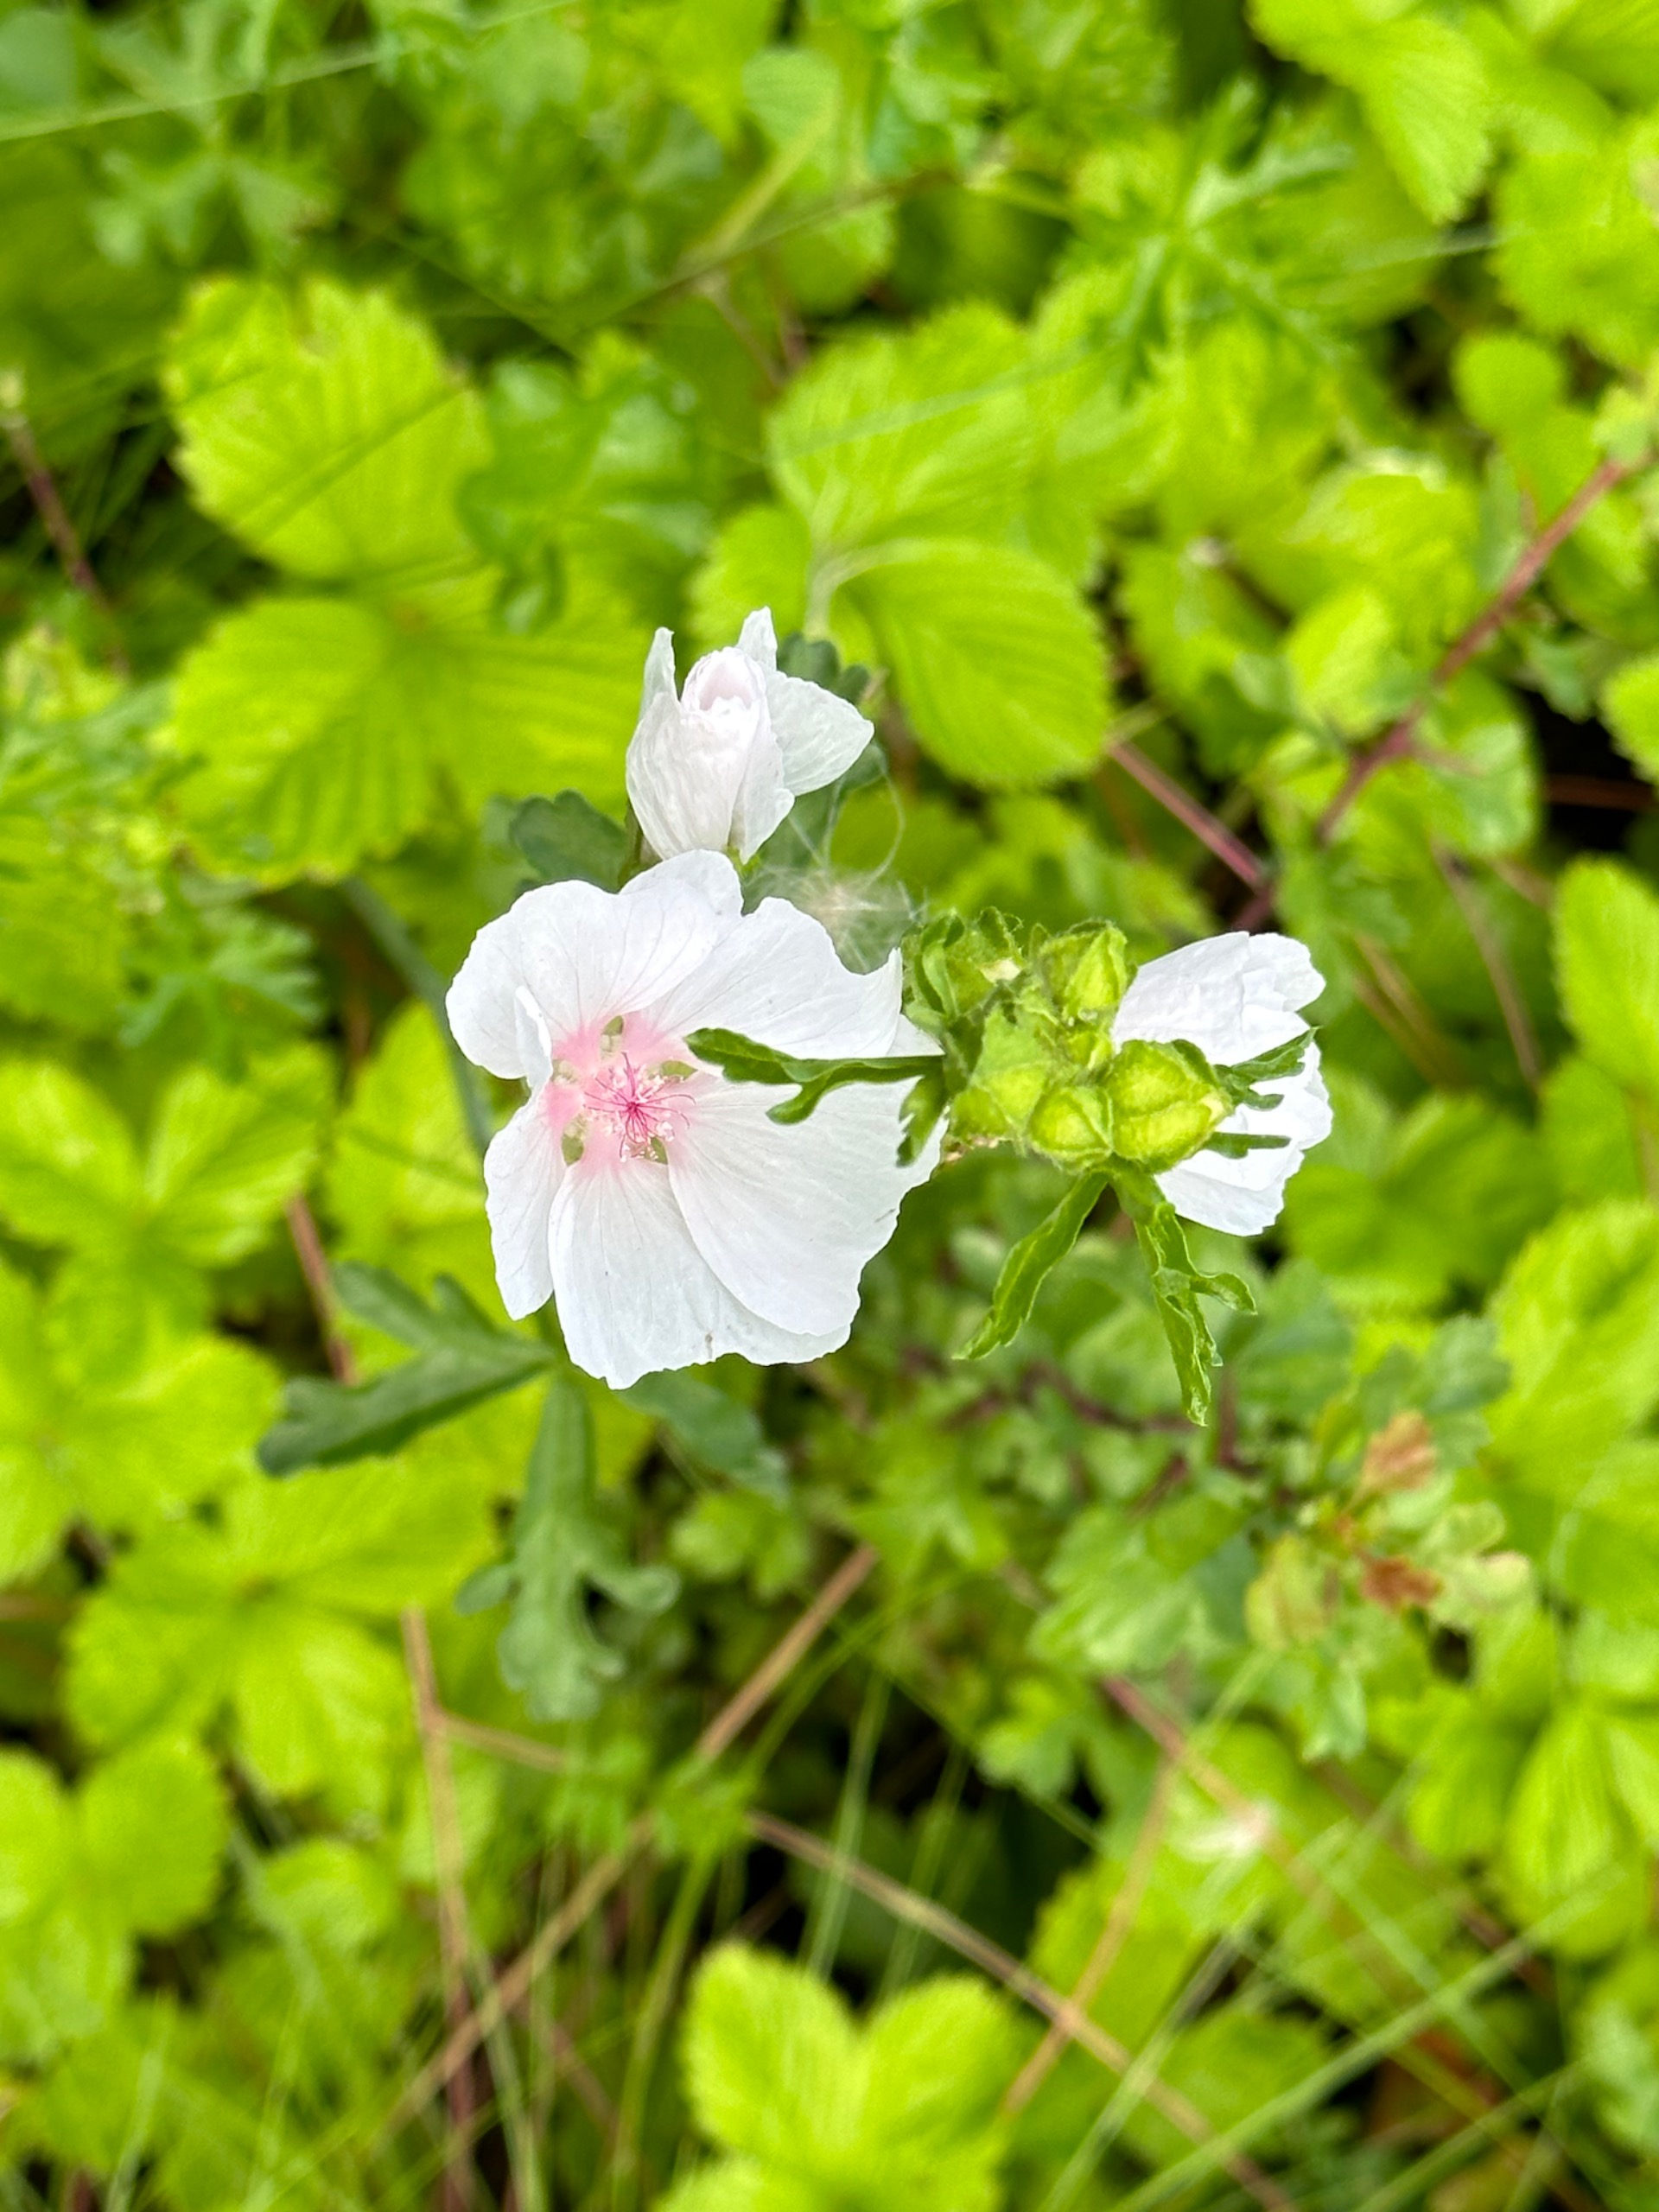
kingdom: Plantae
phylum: Tracheophyta
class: Magnoliopsida
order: Malvales
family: Malvaceae
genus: Malva
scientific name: Malva alcea
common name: Rosen-katost
